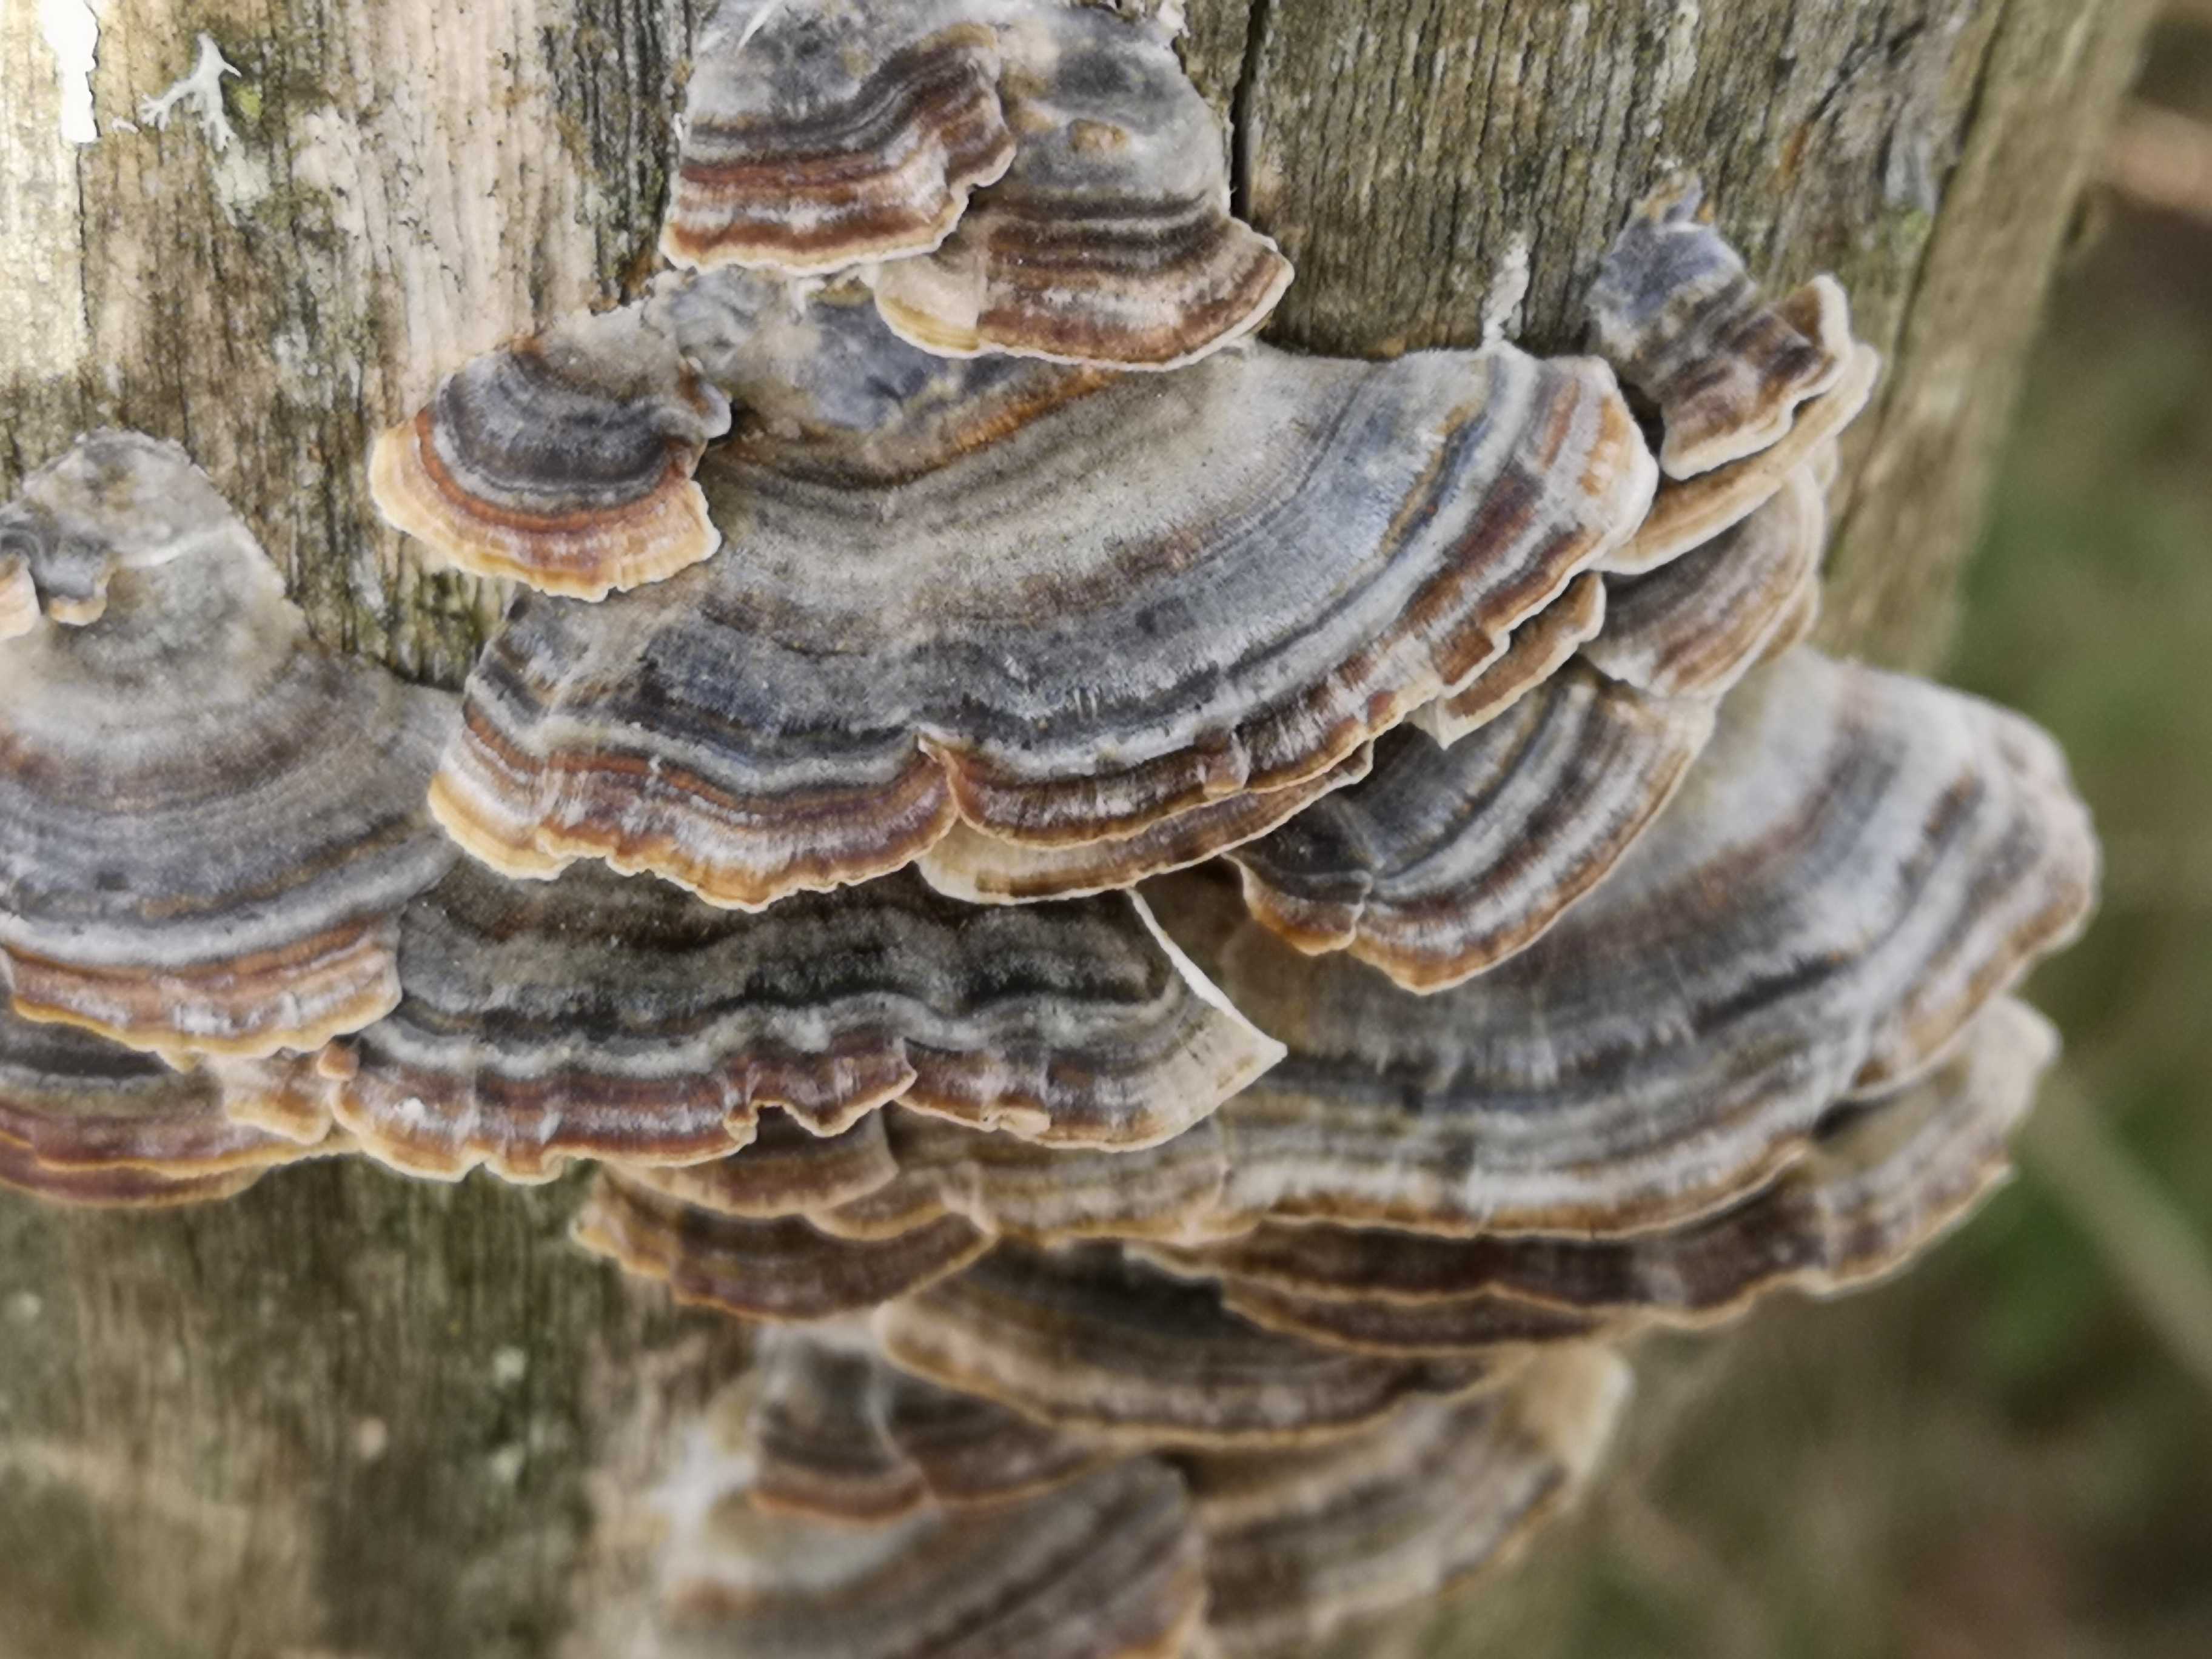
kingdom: Fungi
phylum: Basidiomycota
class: Agaricomycetes
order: Polyporales
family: Polyporaceae
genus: Trametes
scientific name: Trametes versicolor
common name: broget læderporesvamp
